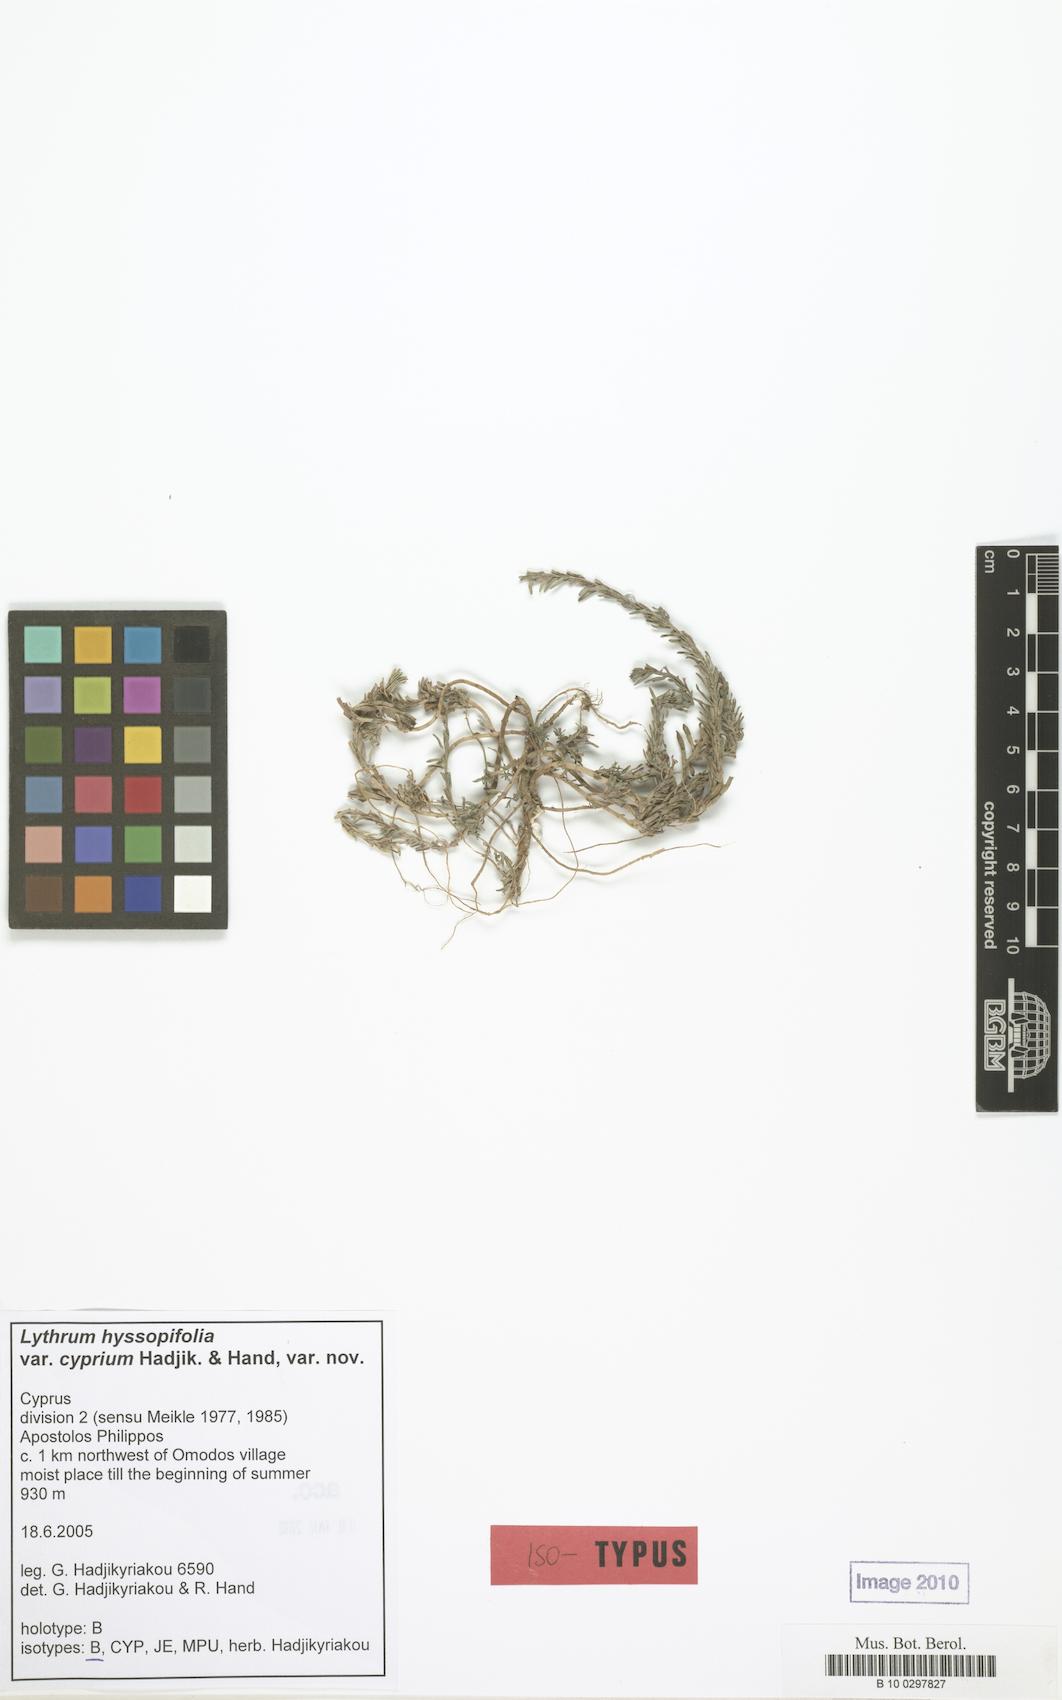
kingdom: Plantae
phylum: Tracheophyta
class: Magnoliopsida
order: Myrtales
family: Lythraceae
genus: Lythrum
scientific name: Lythrum hyssopifolia
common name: Grass-poly
